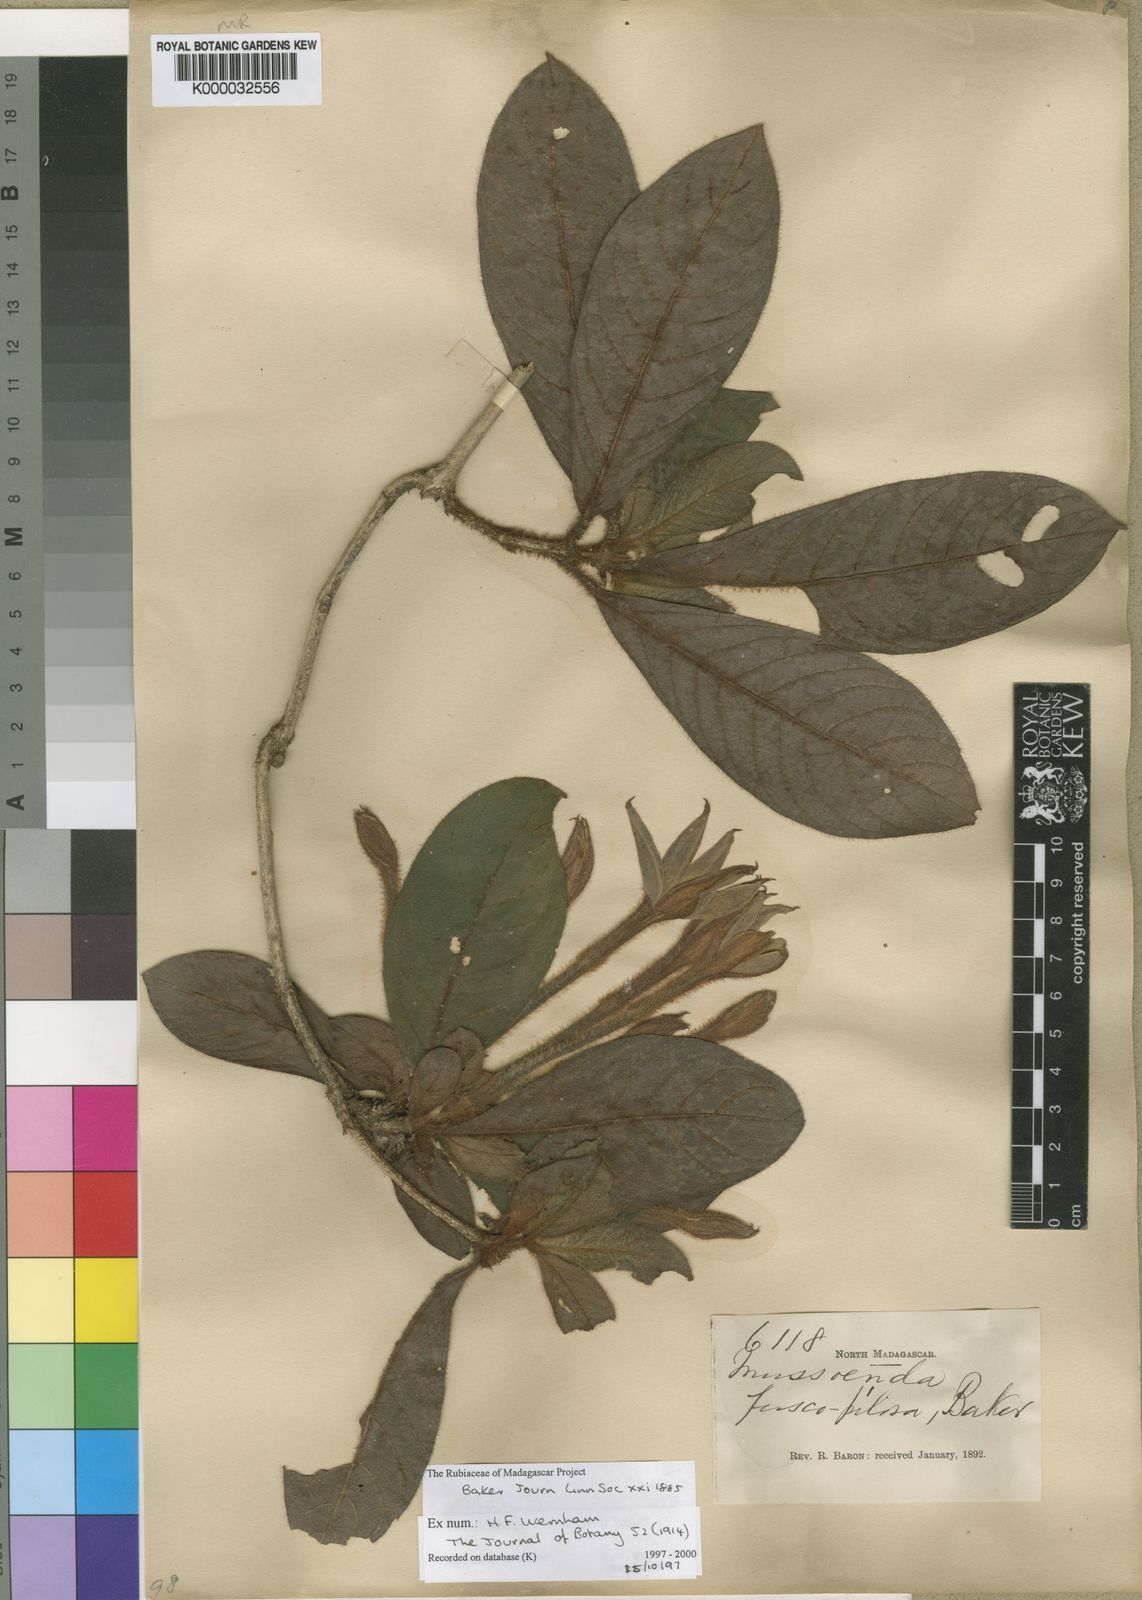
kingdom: Plantae
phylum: Tracheophyta
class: Magnoliopsida
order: Gentianales
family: Rubiaceae
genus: Bremeria
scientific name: Bremeria fuscopilosa
